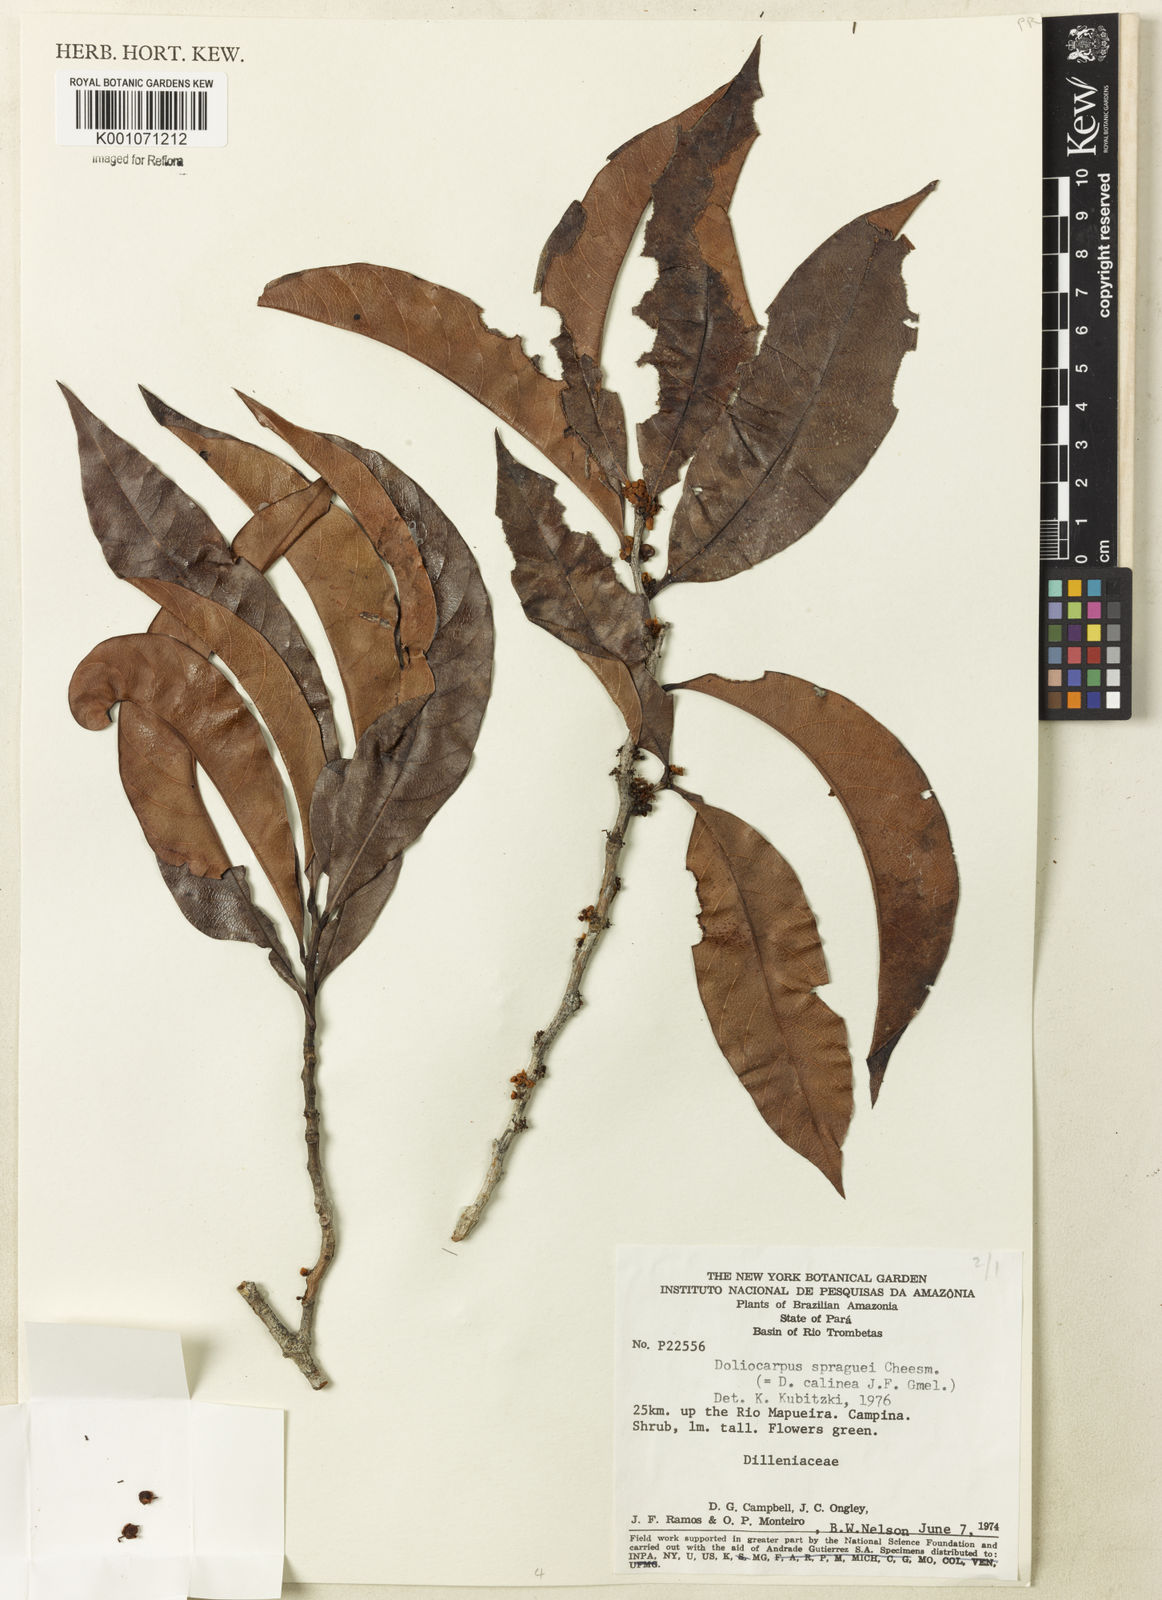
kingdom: Plantae
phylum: Tracheophyta
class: Magnoliopsida
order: Dilleniales
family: Dilleniaceae
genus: Doliocarpus
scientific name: Doliocarpus spraguei
